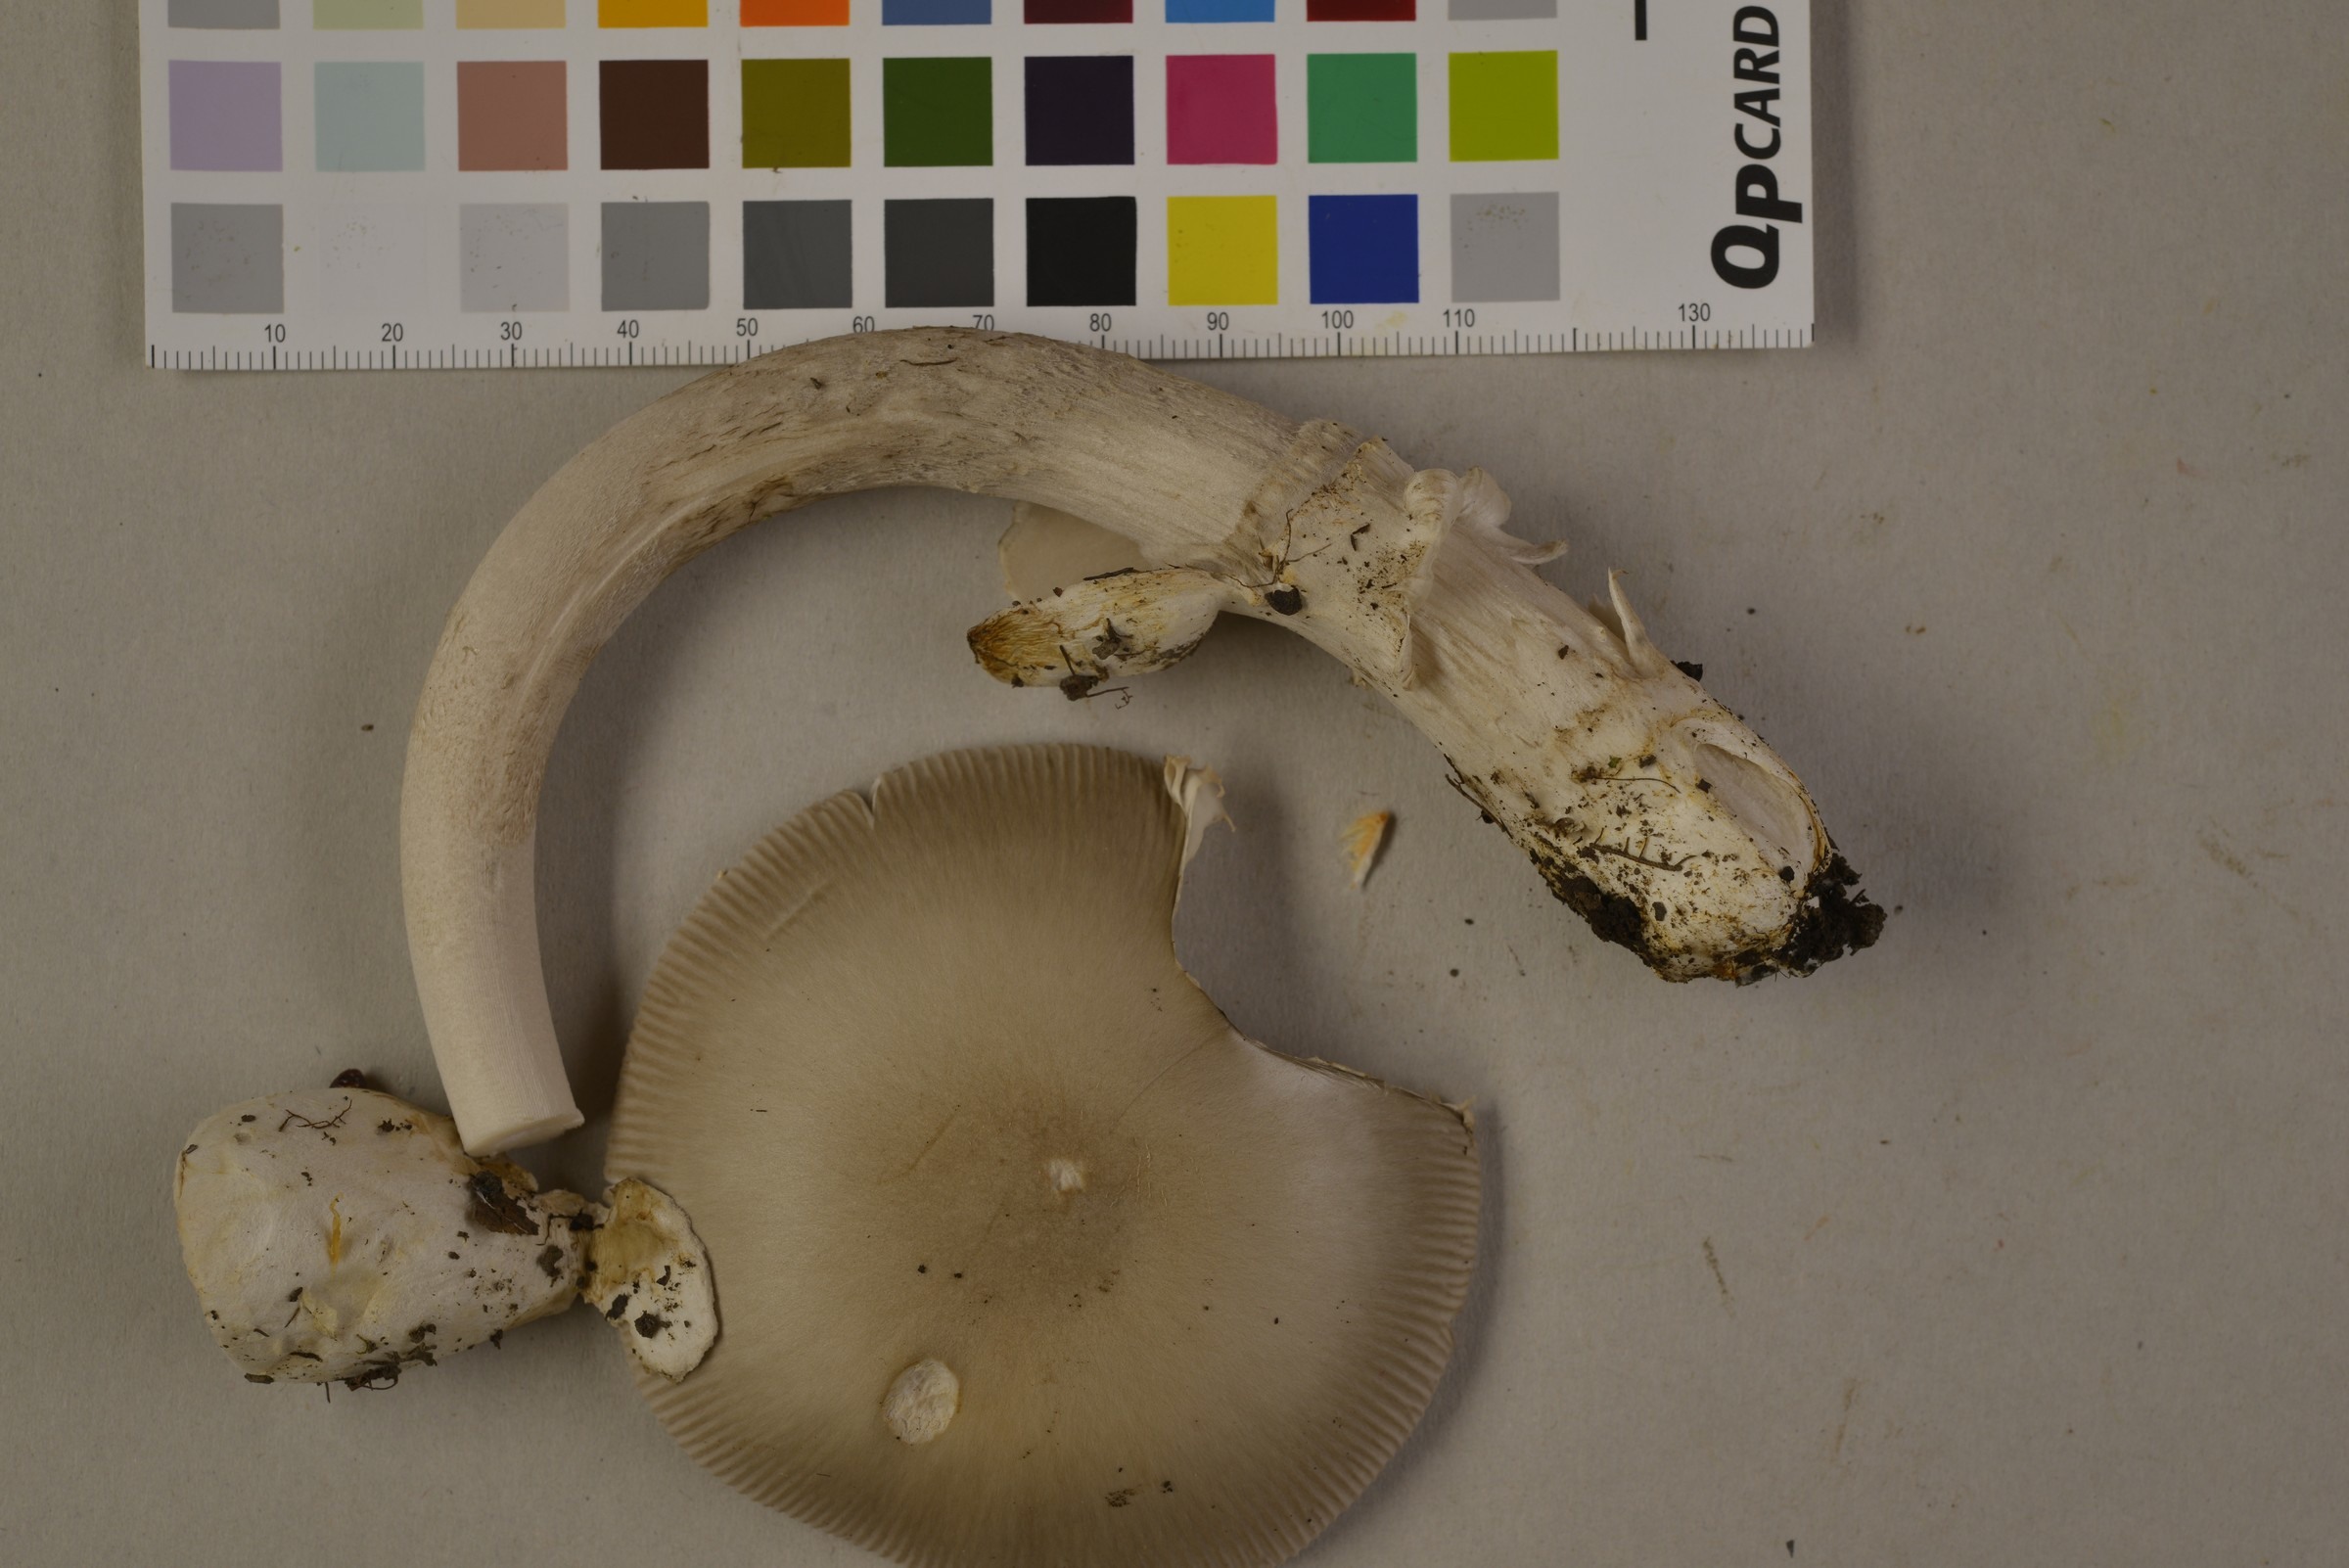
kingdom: Fungi
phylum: Basidiomycota
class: Agaricomycetes
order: Agaricales
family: Amanitaceae
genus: Amanita
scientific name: Amanita vaginata
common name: Grisette
